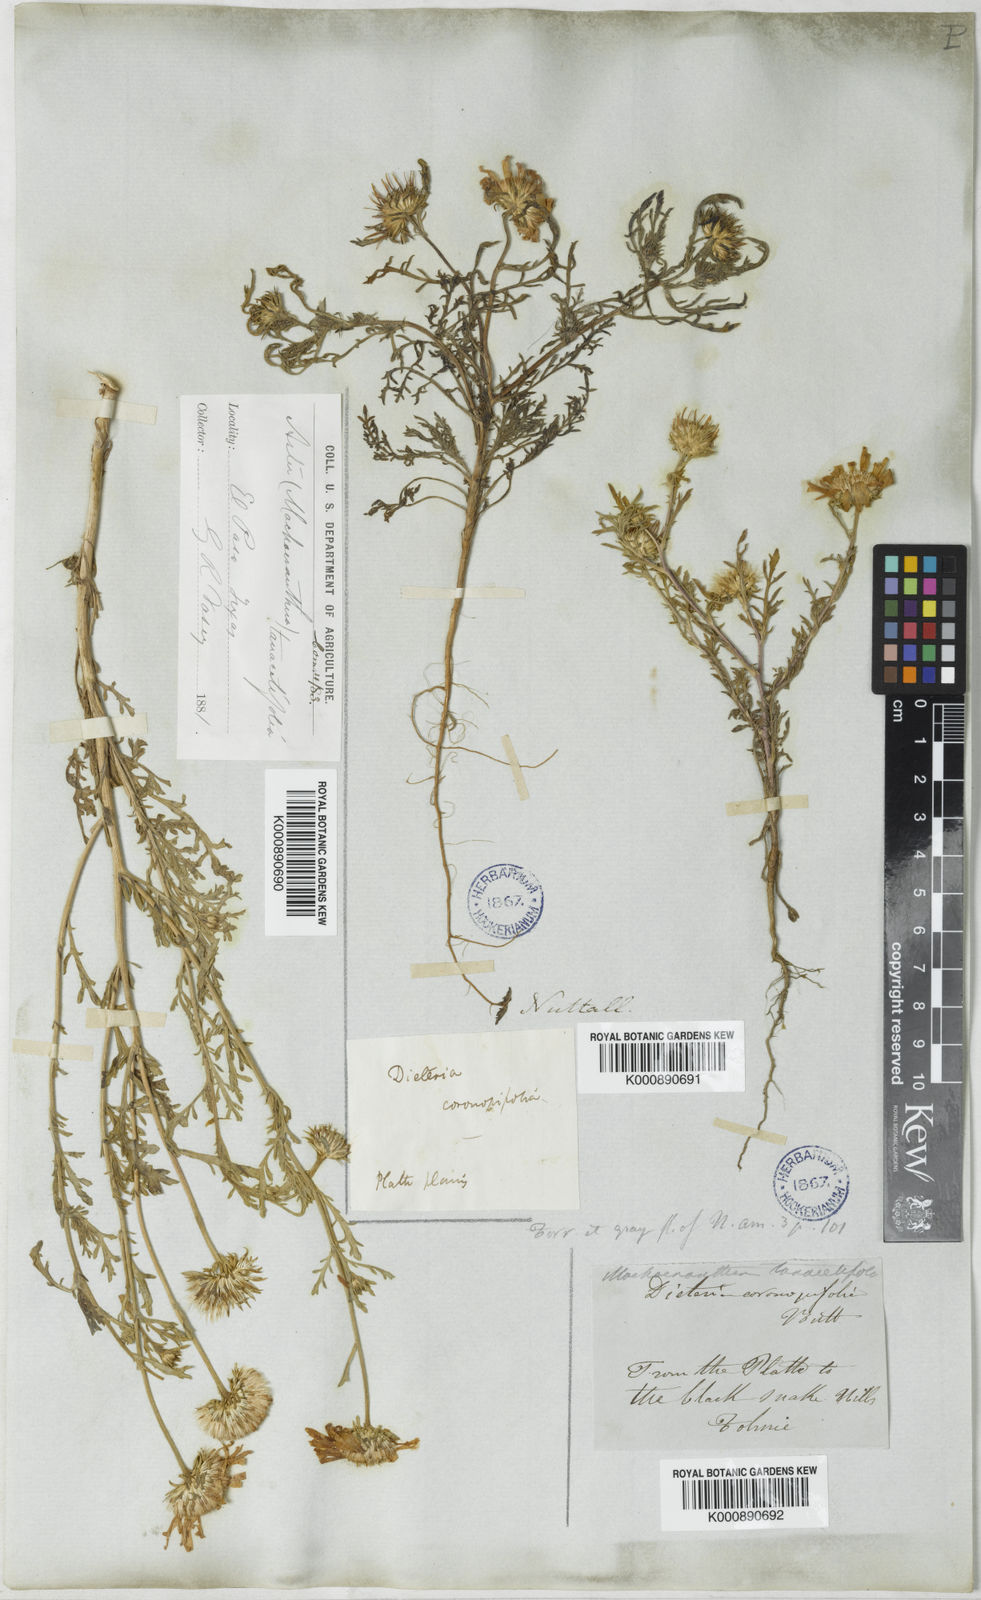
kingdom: Plantae
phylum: Tracheophyta
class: Magnoliopsida
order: Asterales
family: Asteraceae
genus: Machaeranthera
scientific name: Machaeranthera tanacetifolia
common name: Tansy-aster
